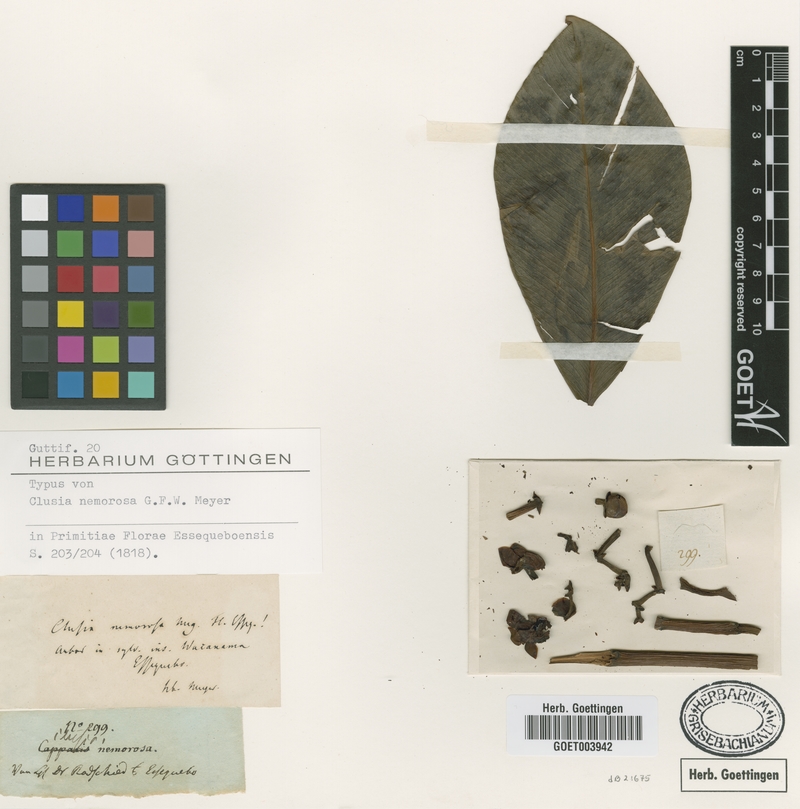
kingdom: Plantae
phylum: Tracheophyta
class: Magnoliopsida
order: Malpighiales
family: Clusiaceae
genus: Clusia
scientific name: Clusia nemorosa
